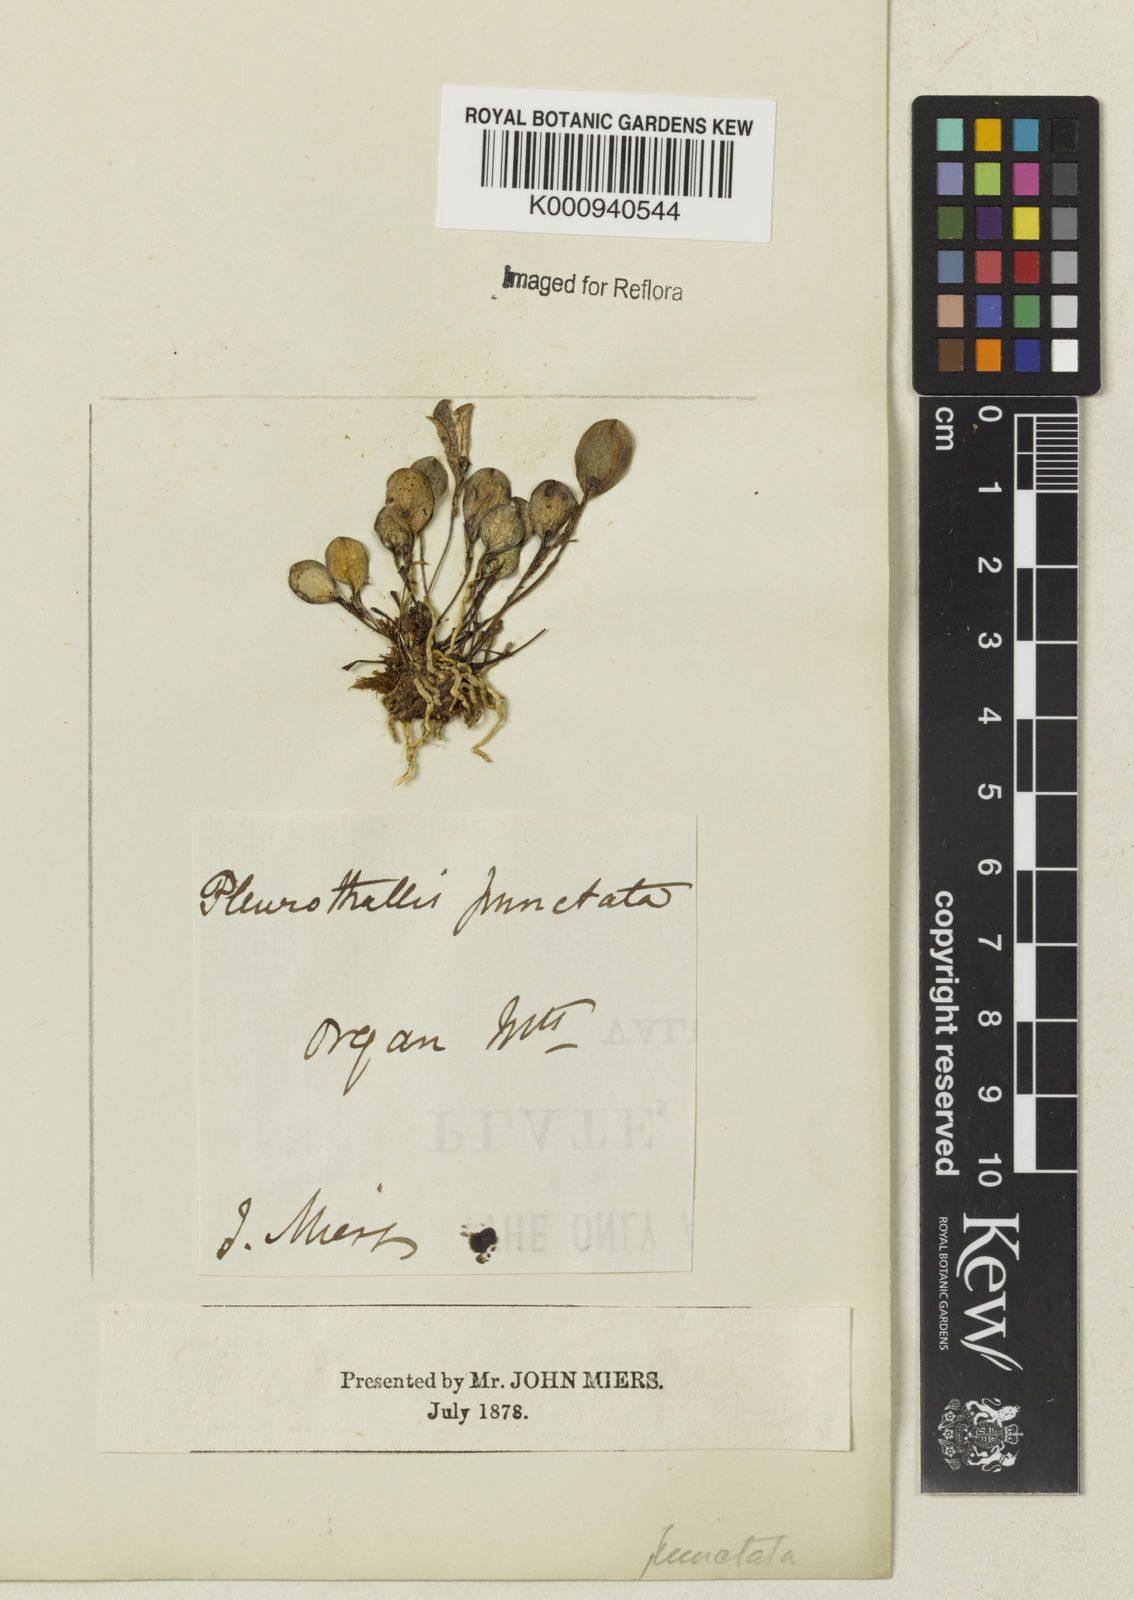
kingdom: Plantae
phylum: Tracheophyta
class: Liliopsida
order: Asparagales
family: Orchidaceae
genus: Trichosalpinx
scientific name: Trichosalpinx
